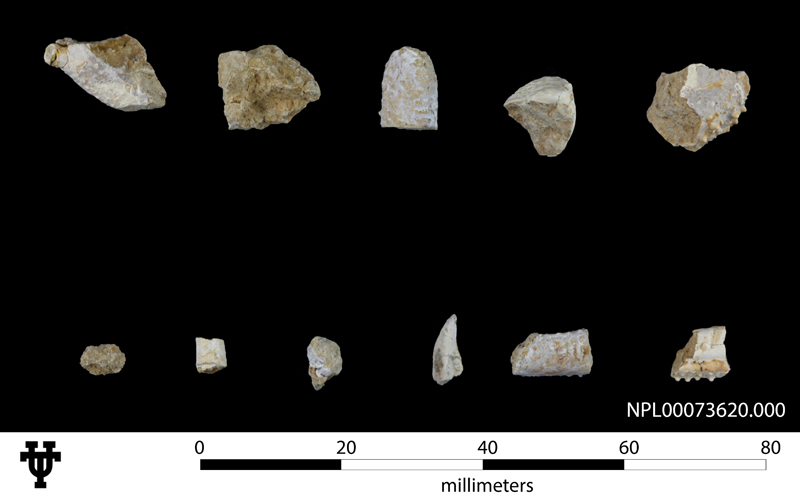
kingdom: Animalia
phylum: Arthropoda
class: Malacostraca
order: Decapoda
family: Callianassidae
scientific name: Callianassidae
